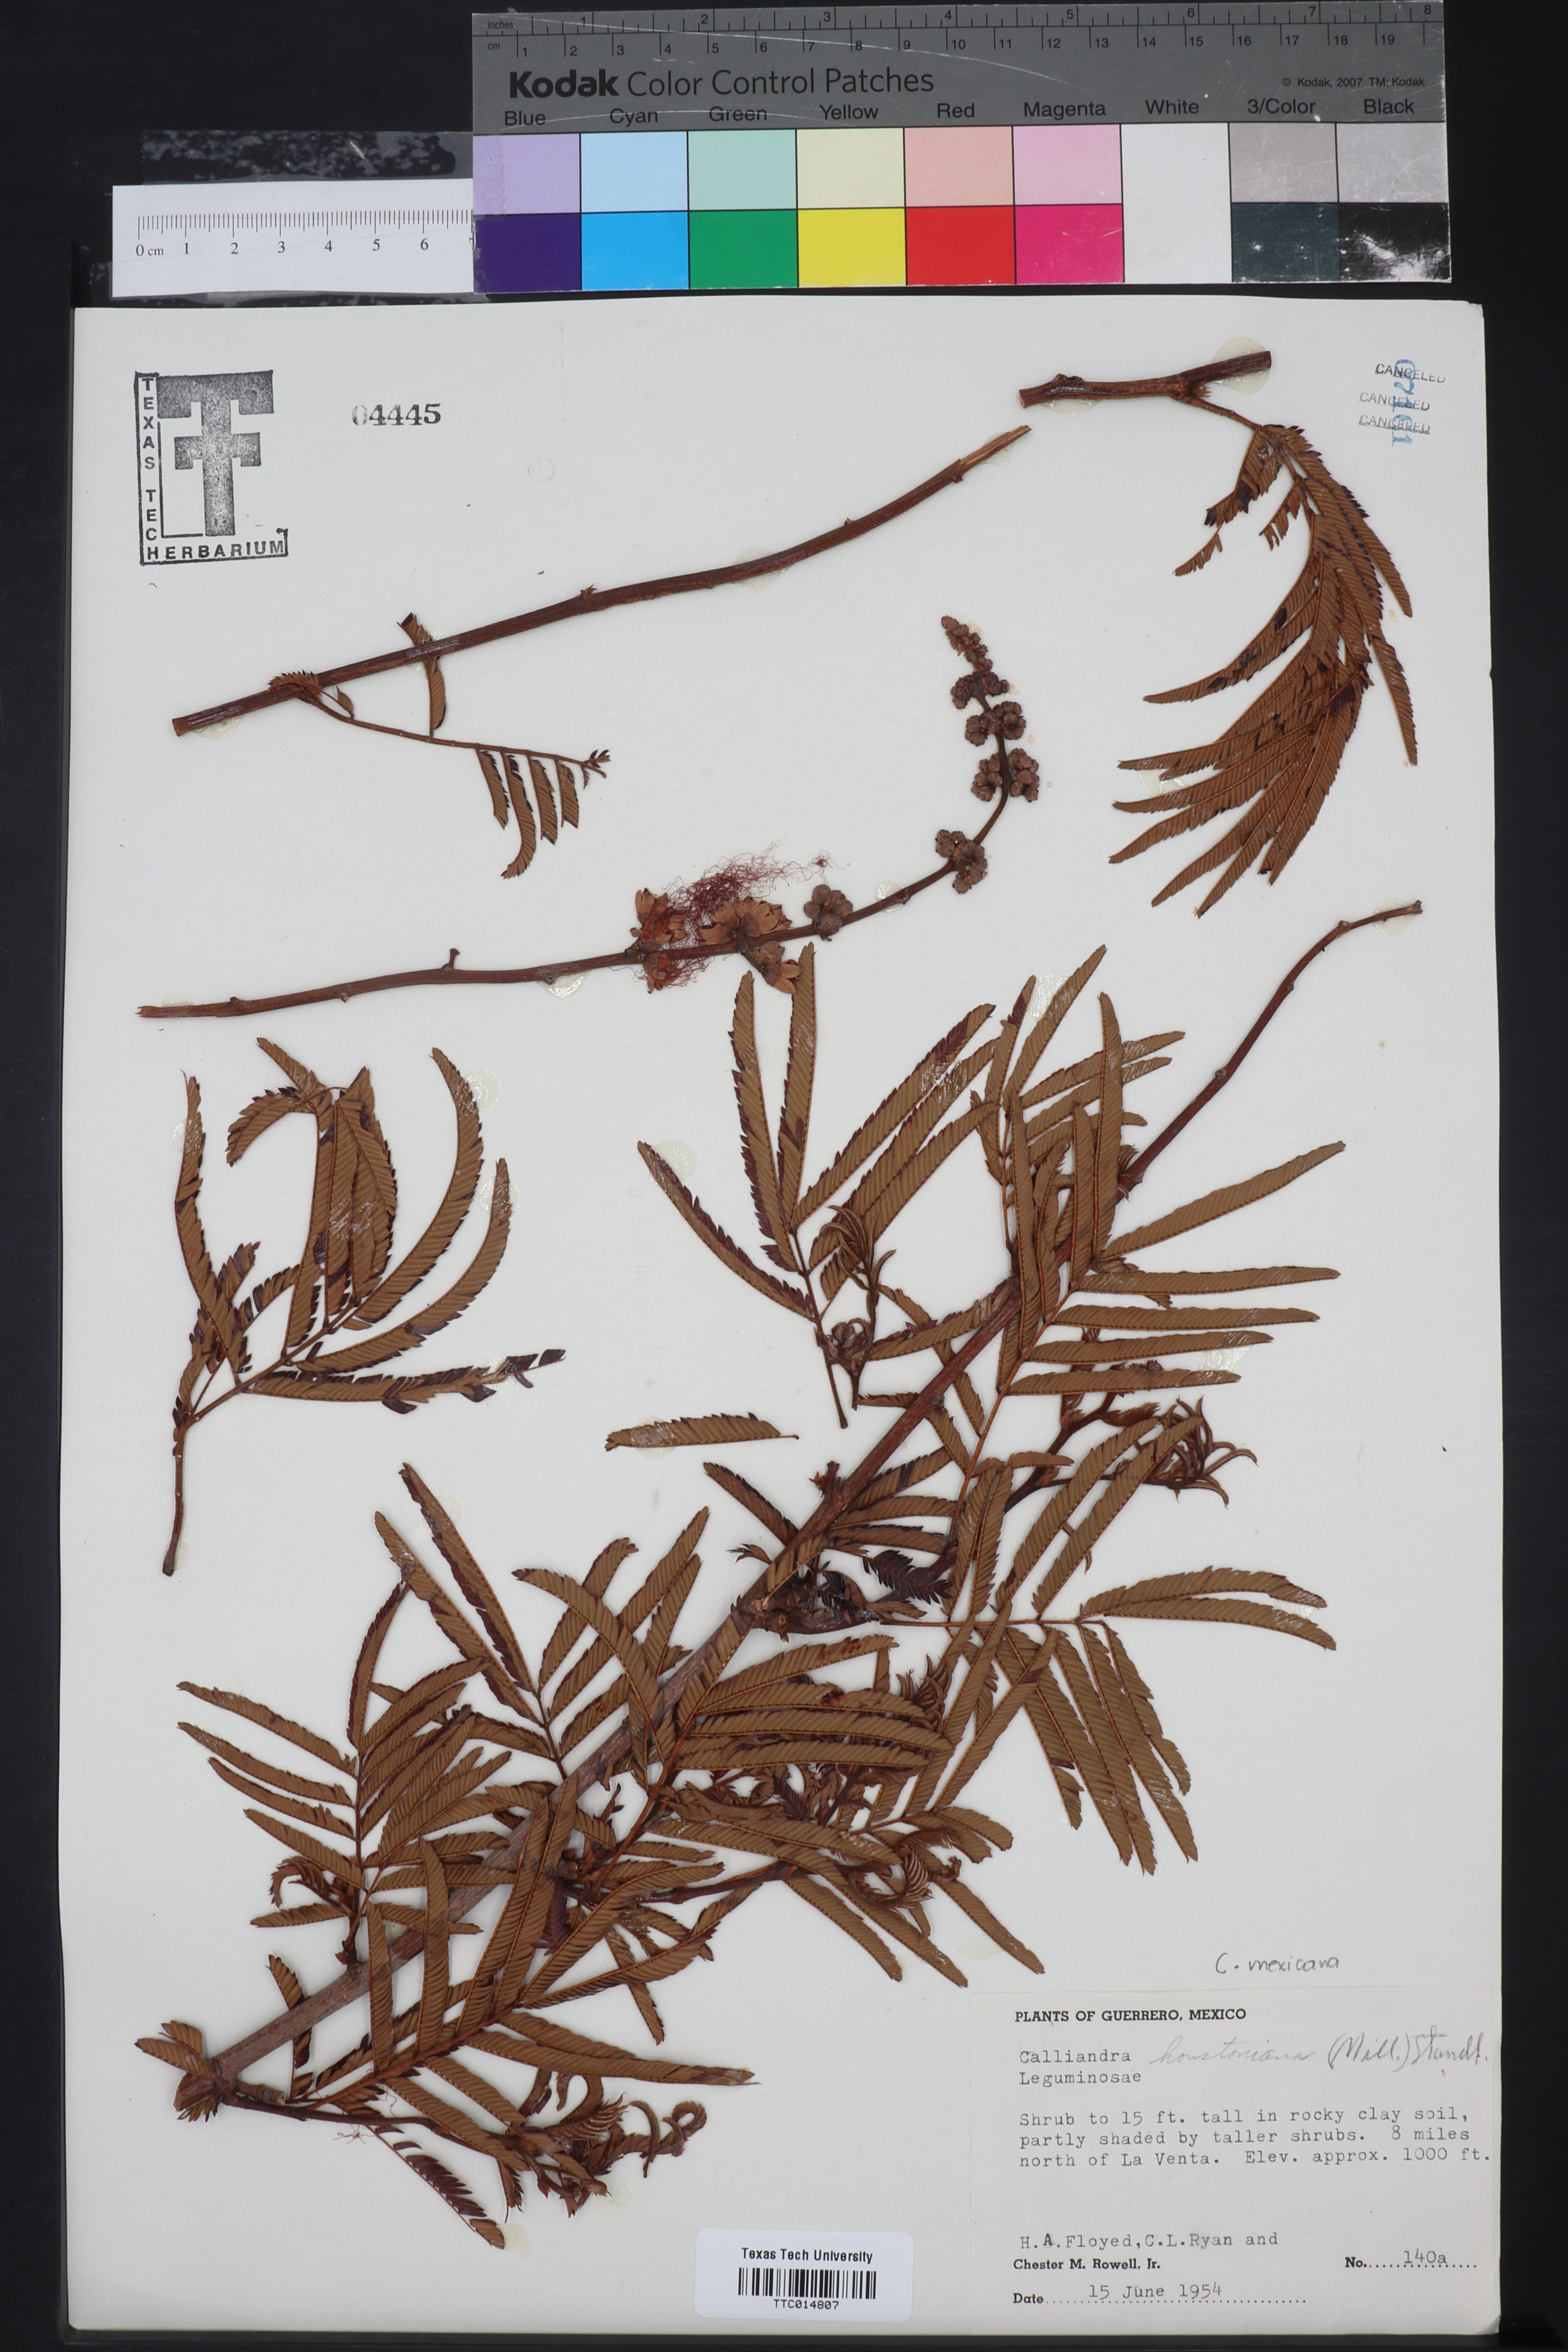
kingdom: Plantae
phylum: Tracheophyta
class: Magnoliopsida
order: Fabales
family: Fabaceae
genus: Calliandra
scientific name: Calliandra houstoniana
